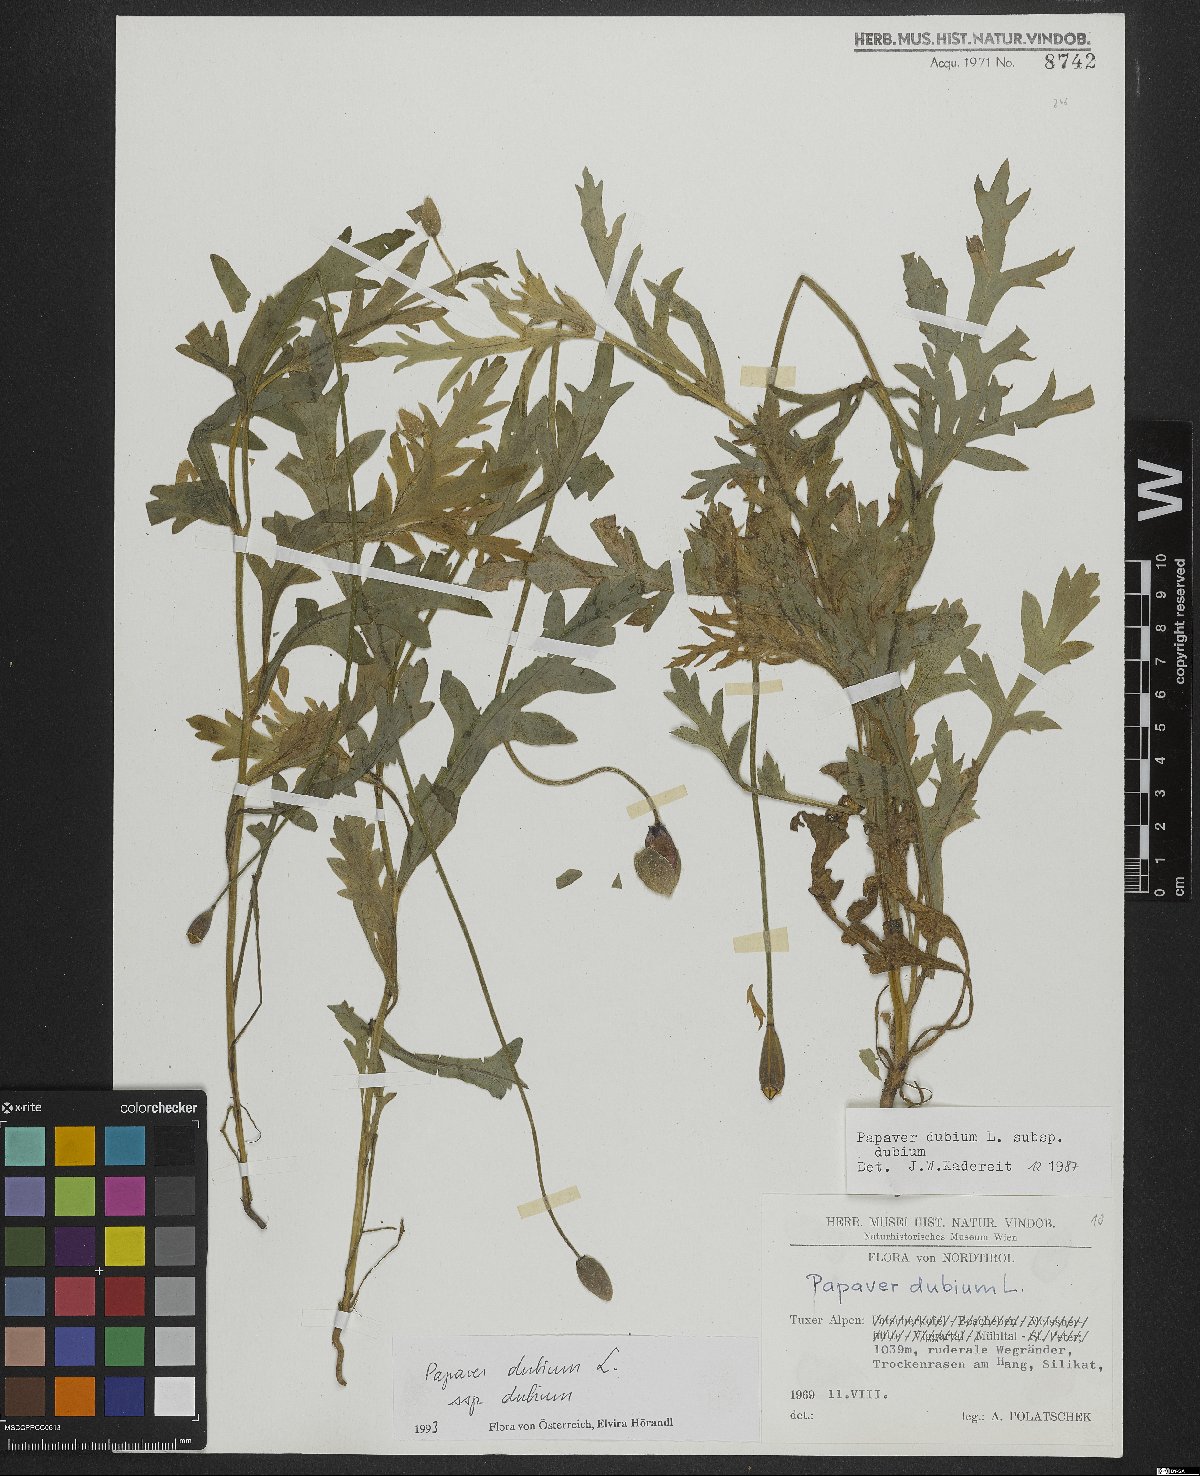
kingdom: Plantae
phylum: Tracheophyta
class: Magnoliopsida
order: Ranunculales
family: Papaveraceae
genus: Papaver
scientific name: Papaver dubium
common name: Long-headed poppy
